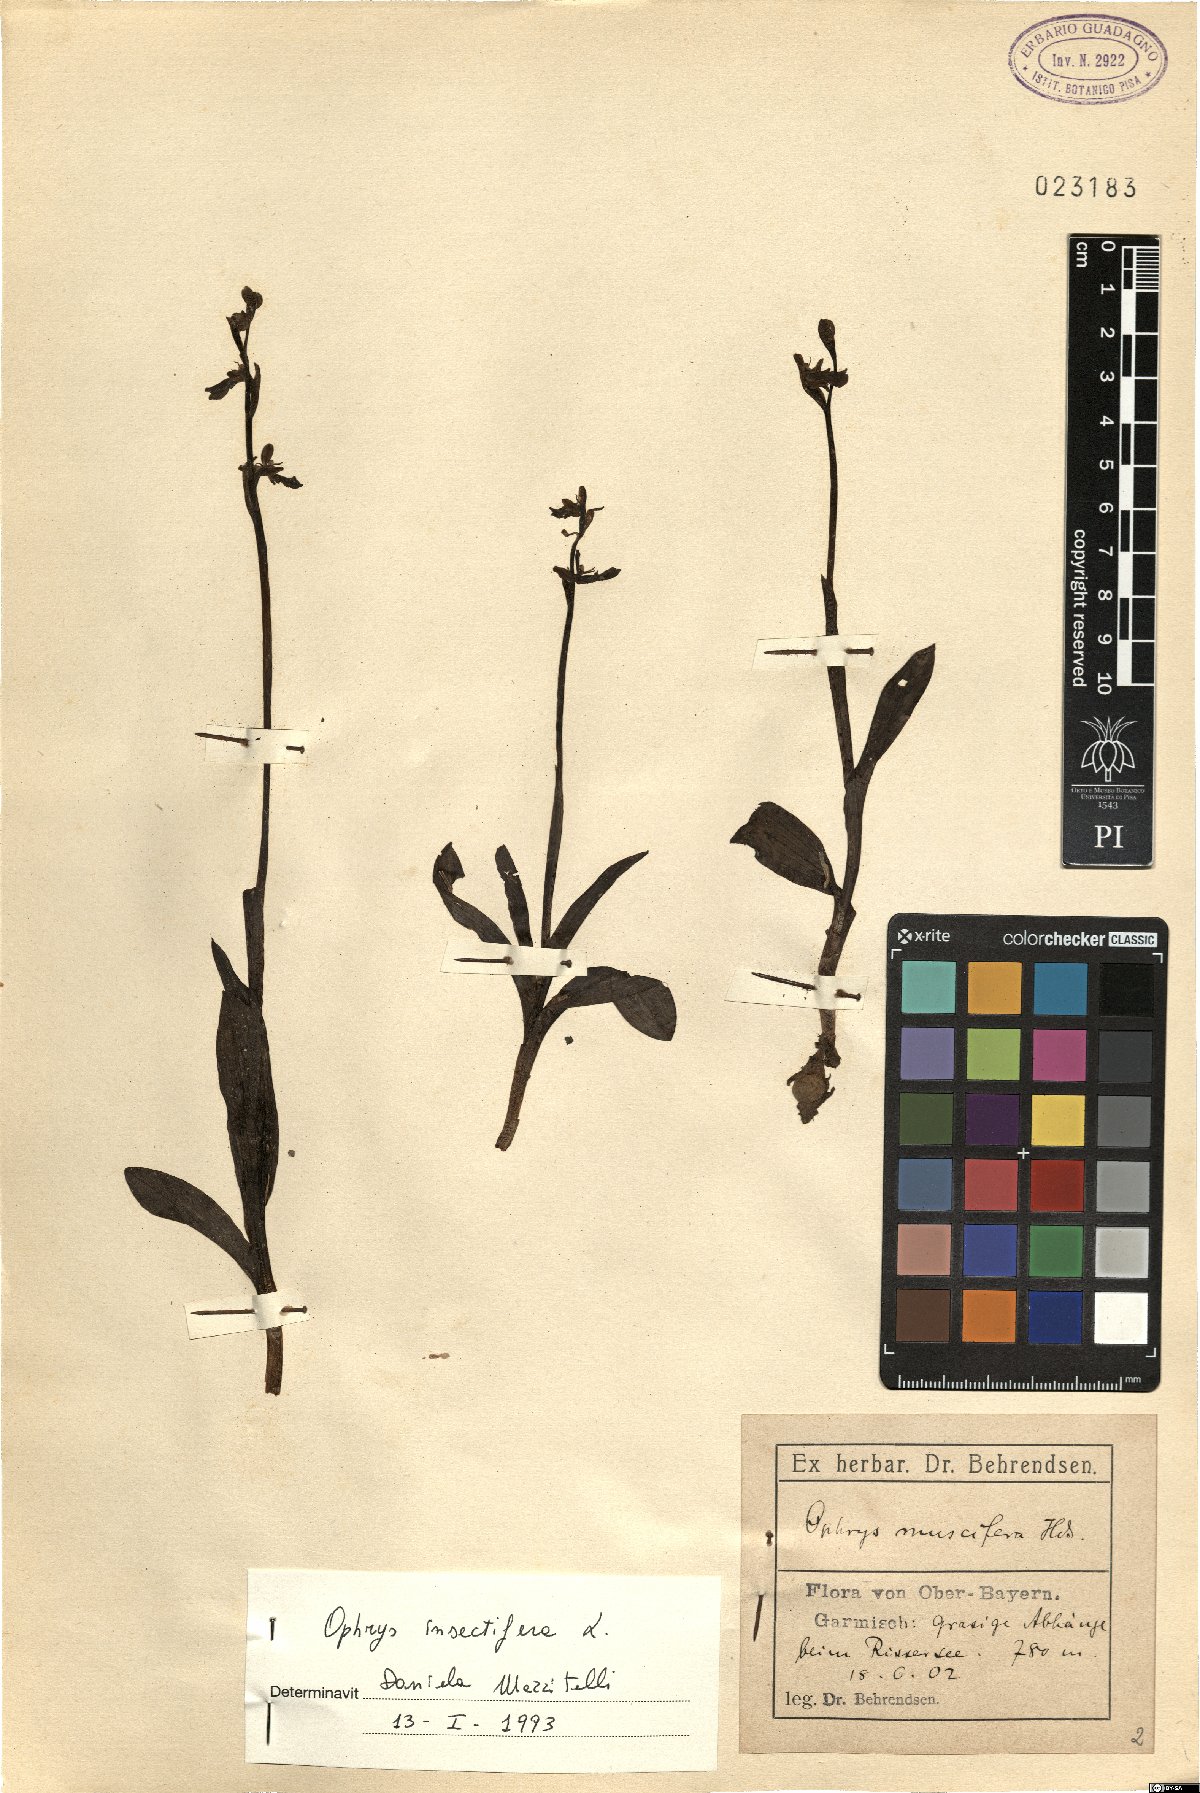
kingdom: Plantae
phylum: Tracheophyta
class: Liliopsida
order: Asparagales
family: Orchidaceae
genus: Ophrys
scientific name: Ophrys insectifera
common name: Fly orchid
